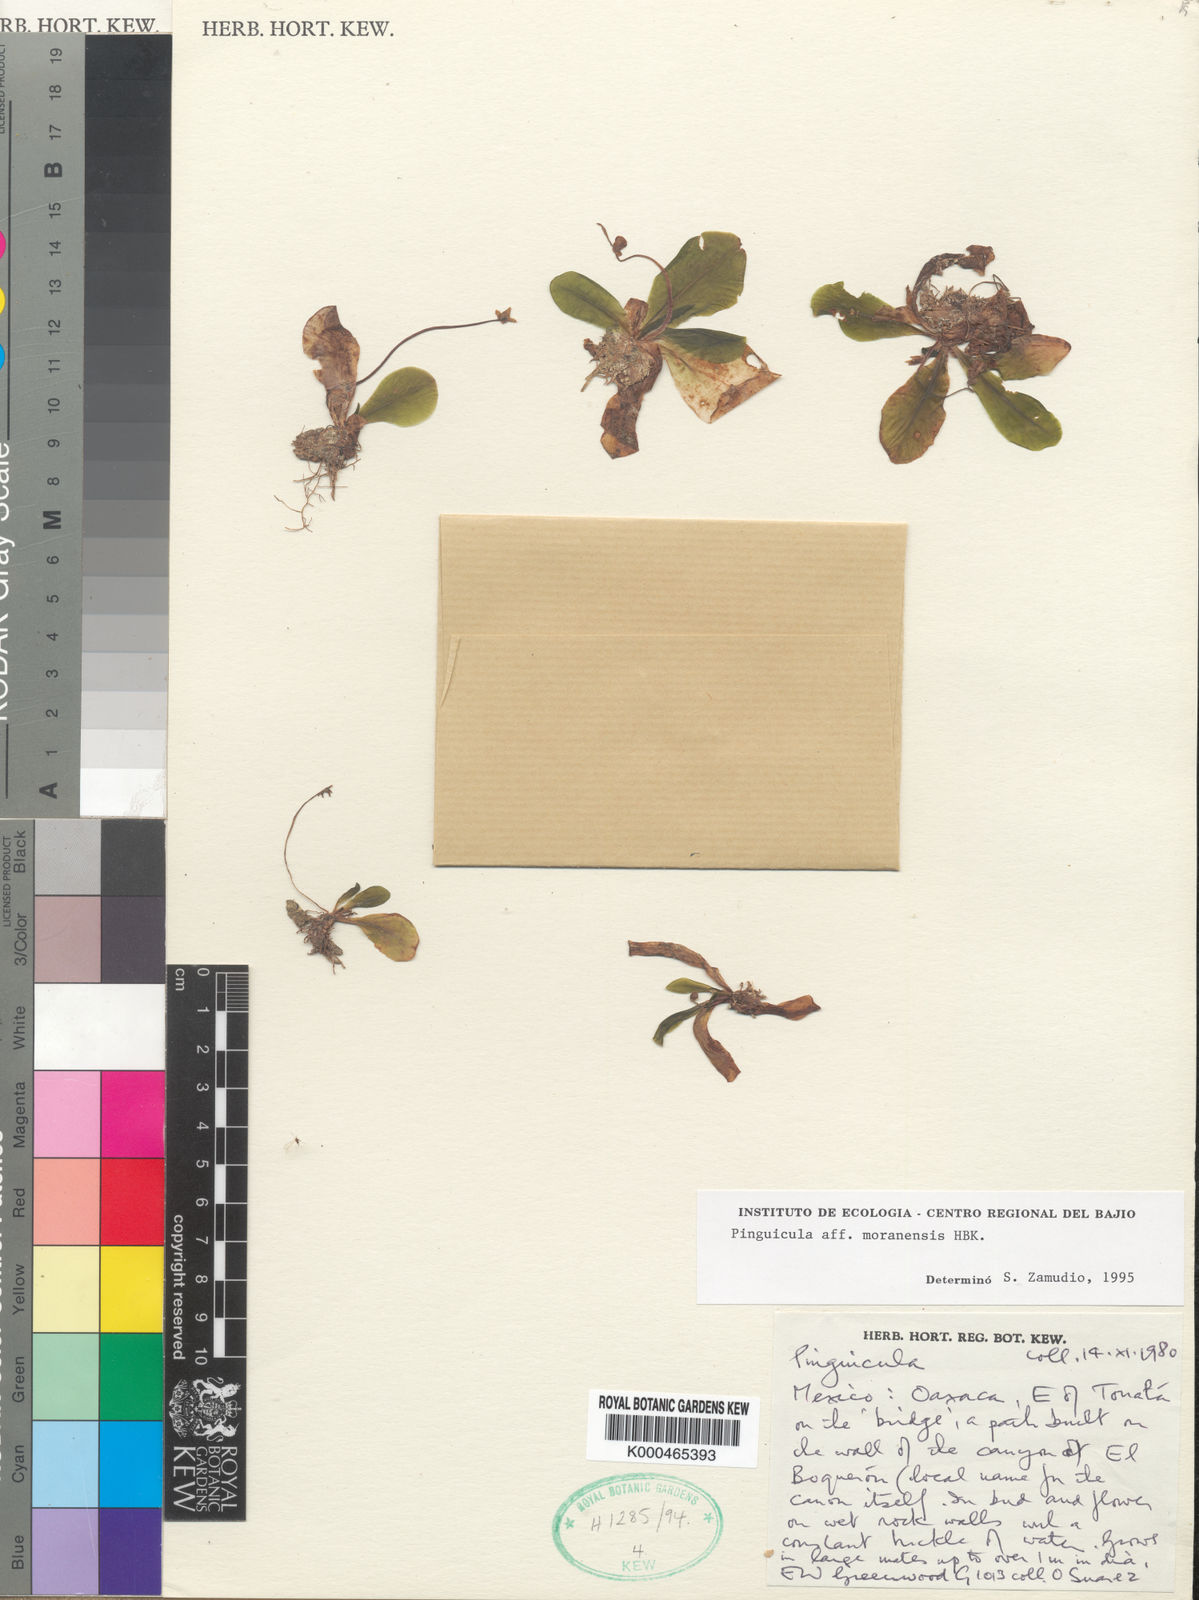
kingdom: Plantae
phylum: Tracheophyta
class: Magnoliopsida
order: Lamiales
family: Lentibulariaceae
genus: Pinguicula
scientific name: Pinguicula moranensis
